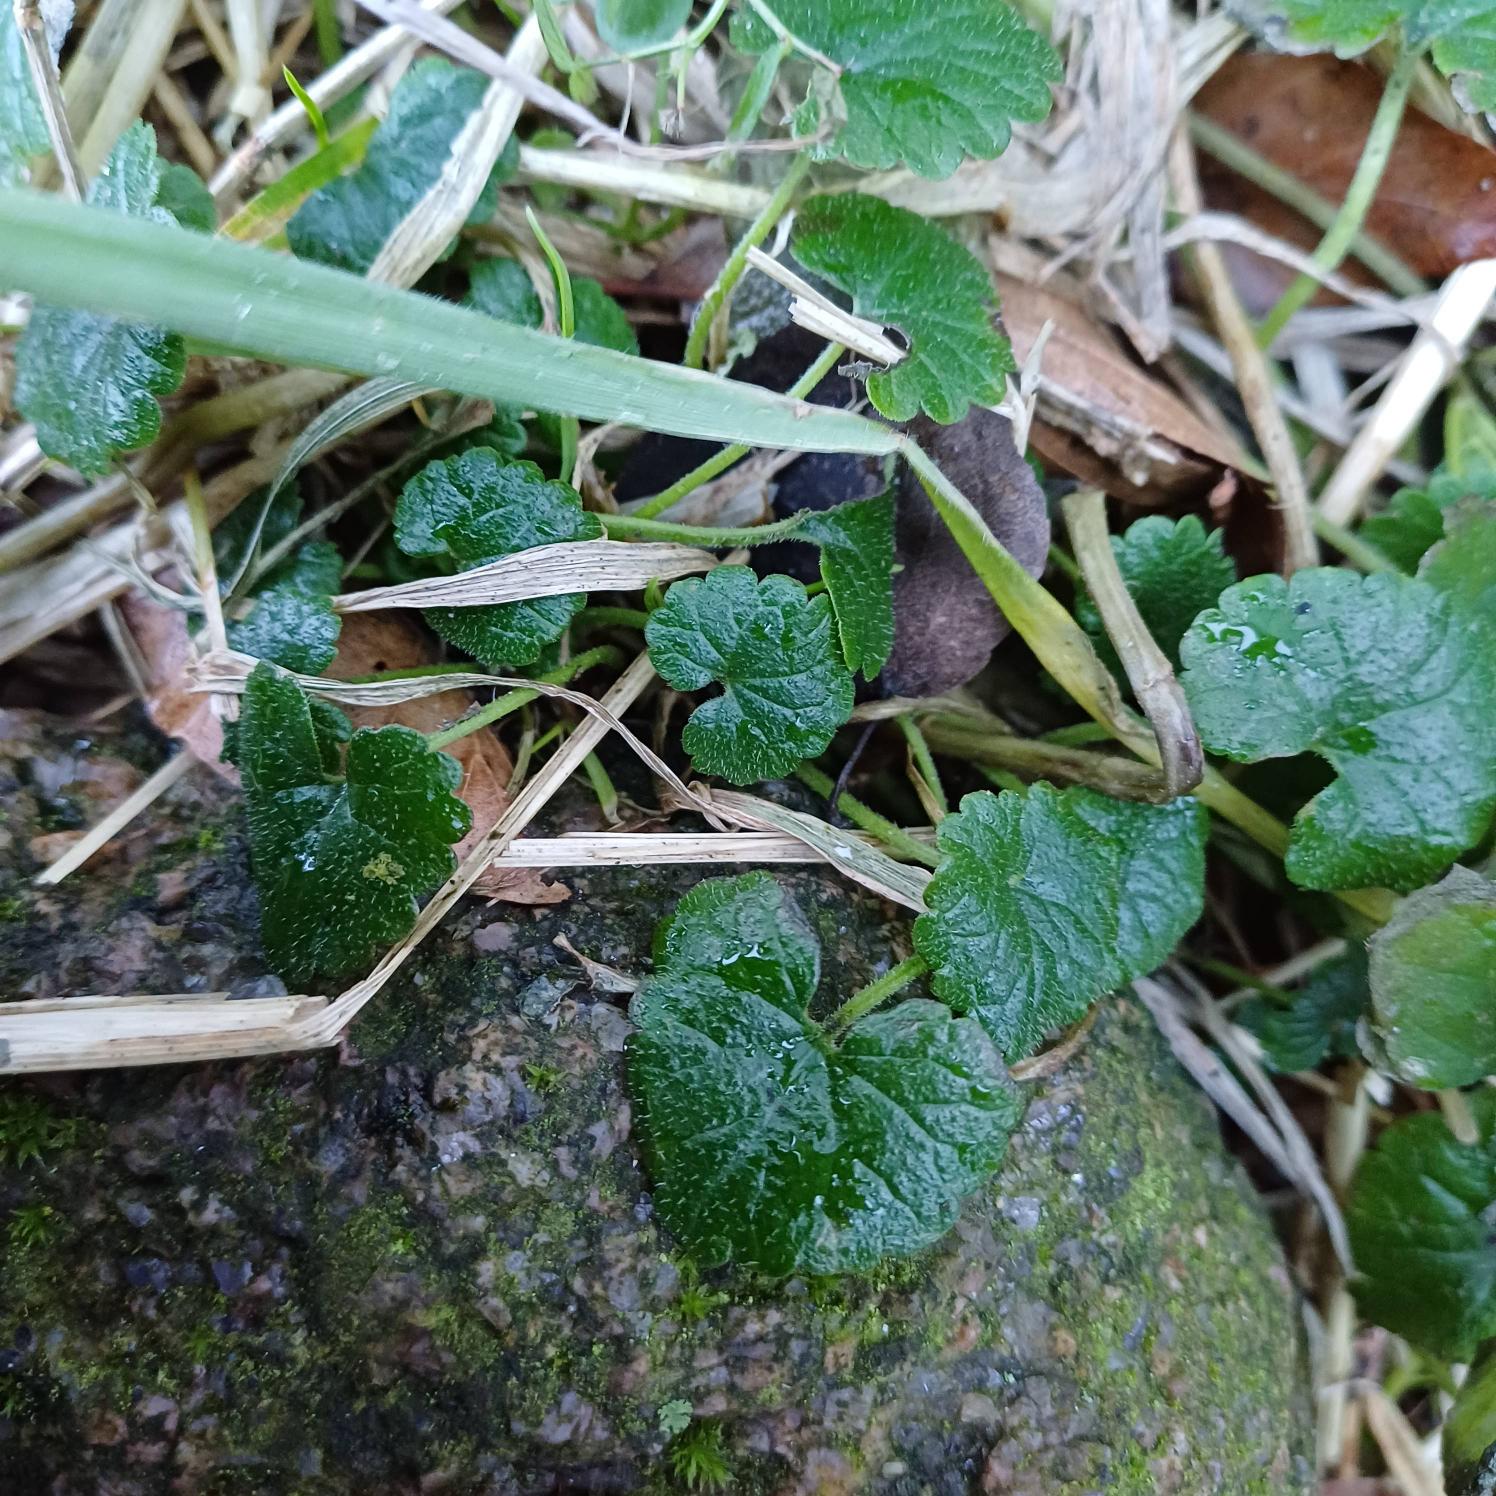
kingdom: Plantae
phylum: Tracheophyta
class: Magnoliopsida
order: Lamiales
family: Lamiaceae
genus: Glechoma
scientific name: Glechoma hederacea
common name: Korsknap
